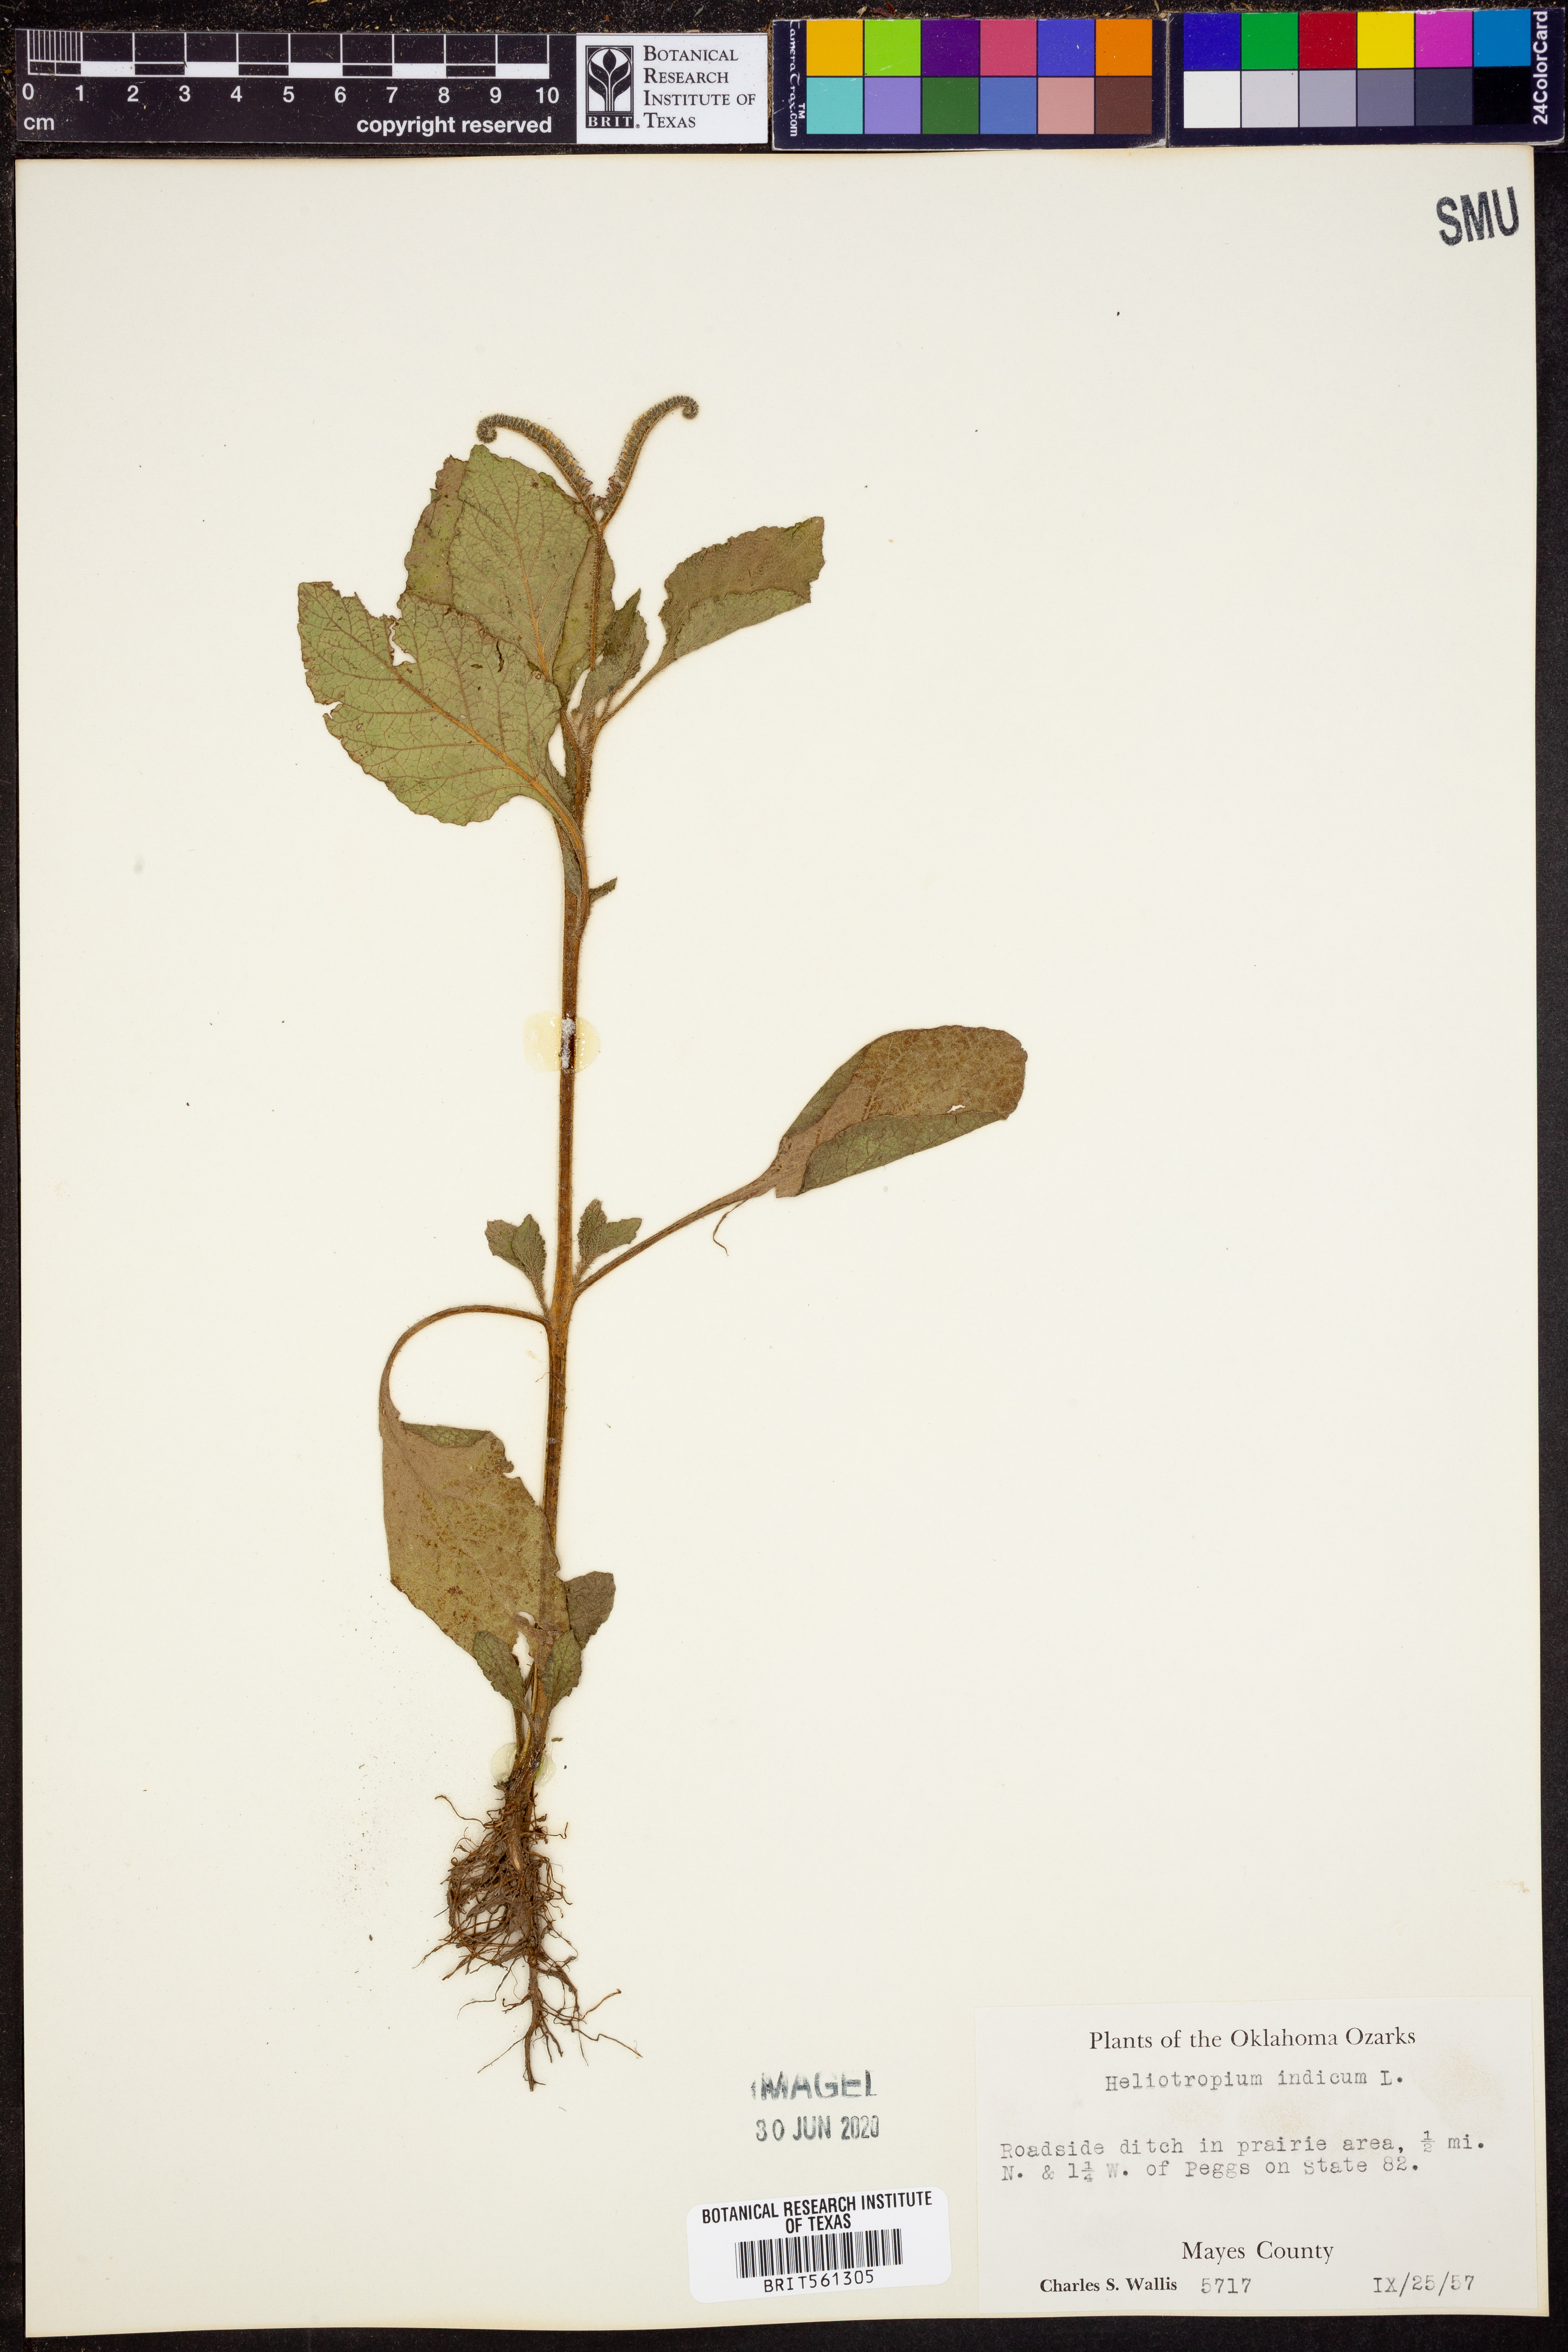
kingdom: Plantae
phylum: Tracheophyta
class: Magnoliopsida
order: Boraginales
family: Heliotropiaceae
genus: Heliotropium
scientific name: Heliotropium indicum
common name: Indian heliotrope
